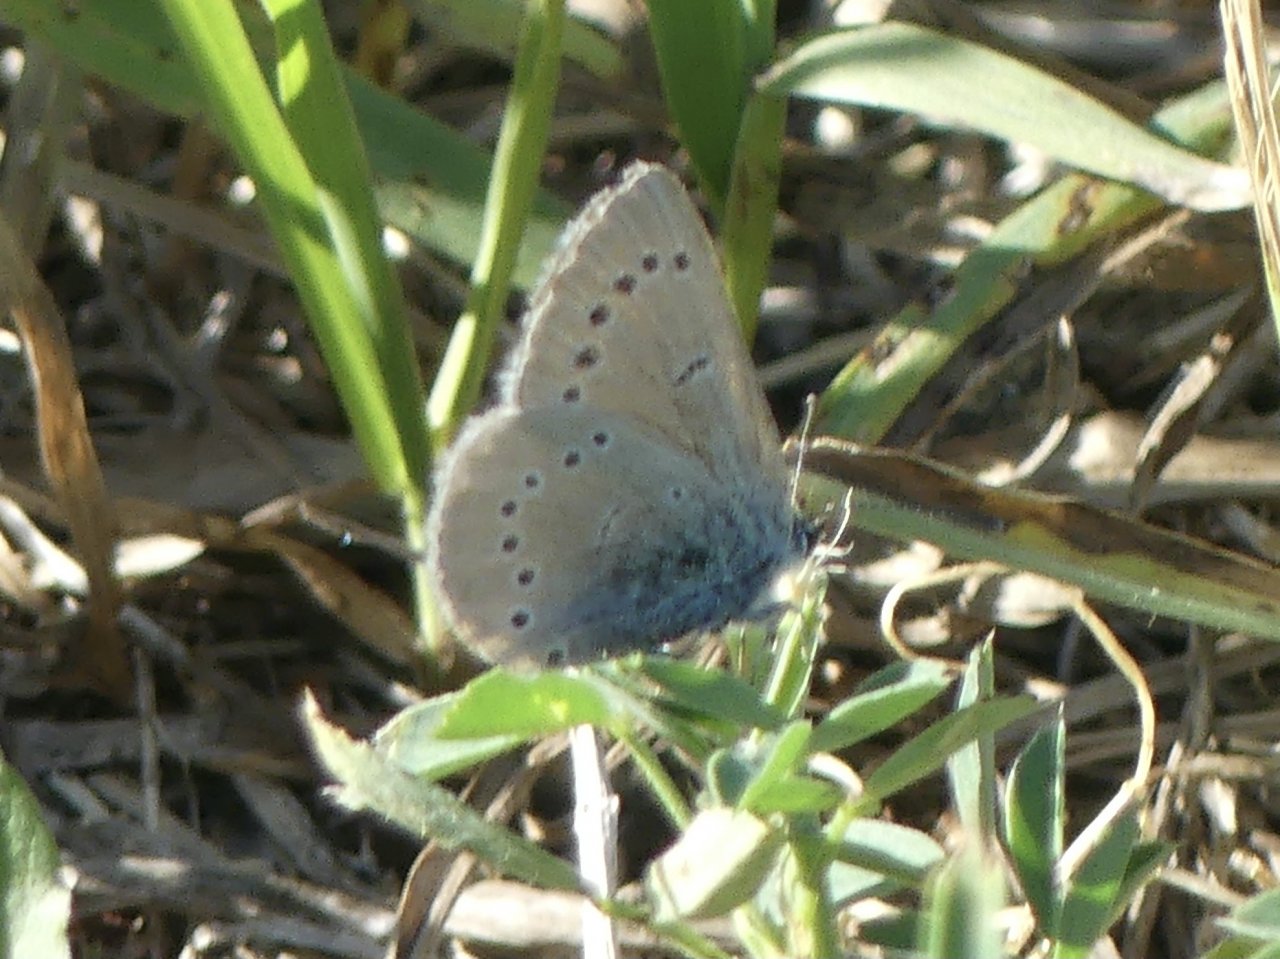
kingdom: Animalia
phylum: Arthropoda
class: Insecta
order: Lepidoptera
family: Lycaenidae
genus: Glaucopsyche
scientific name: Glaucopsyche lygdamus
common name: Silvery Blue
